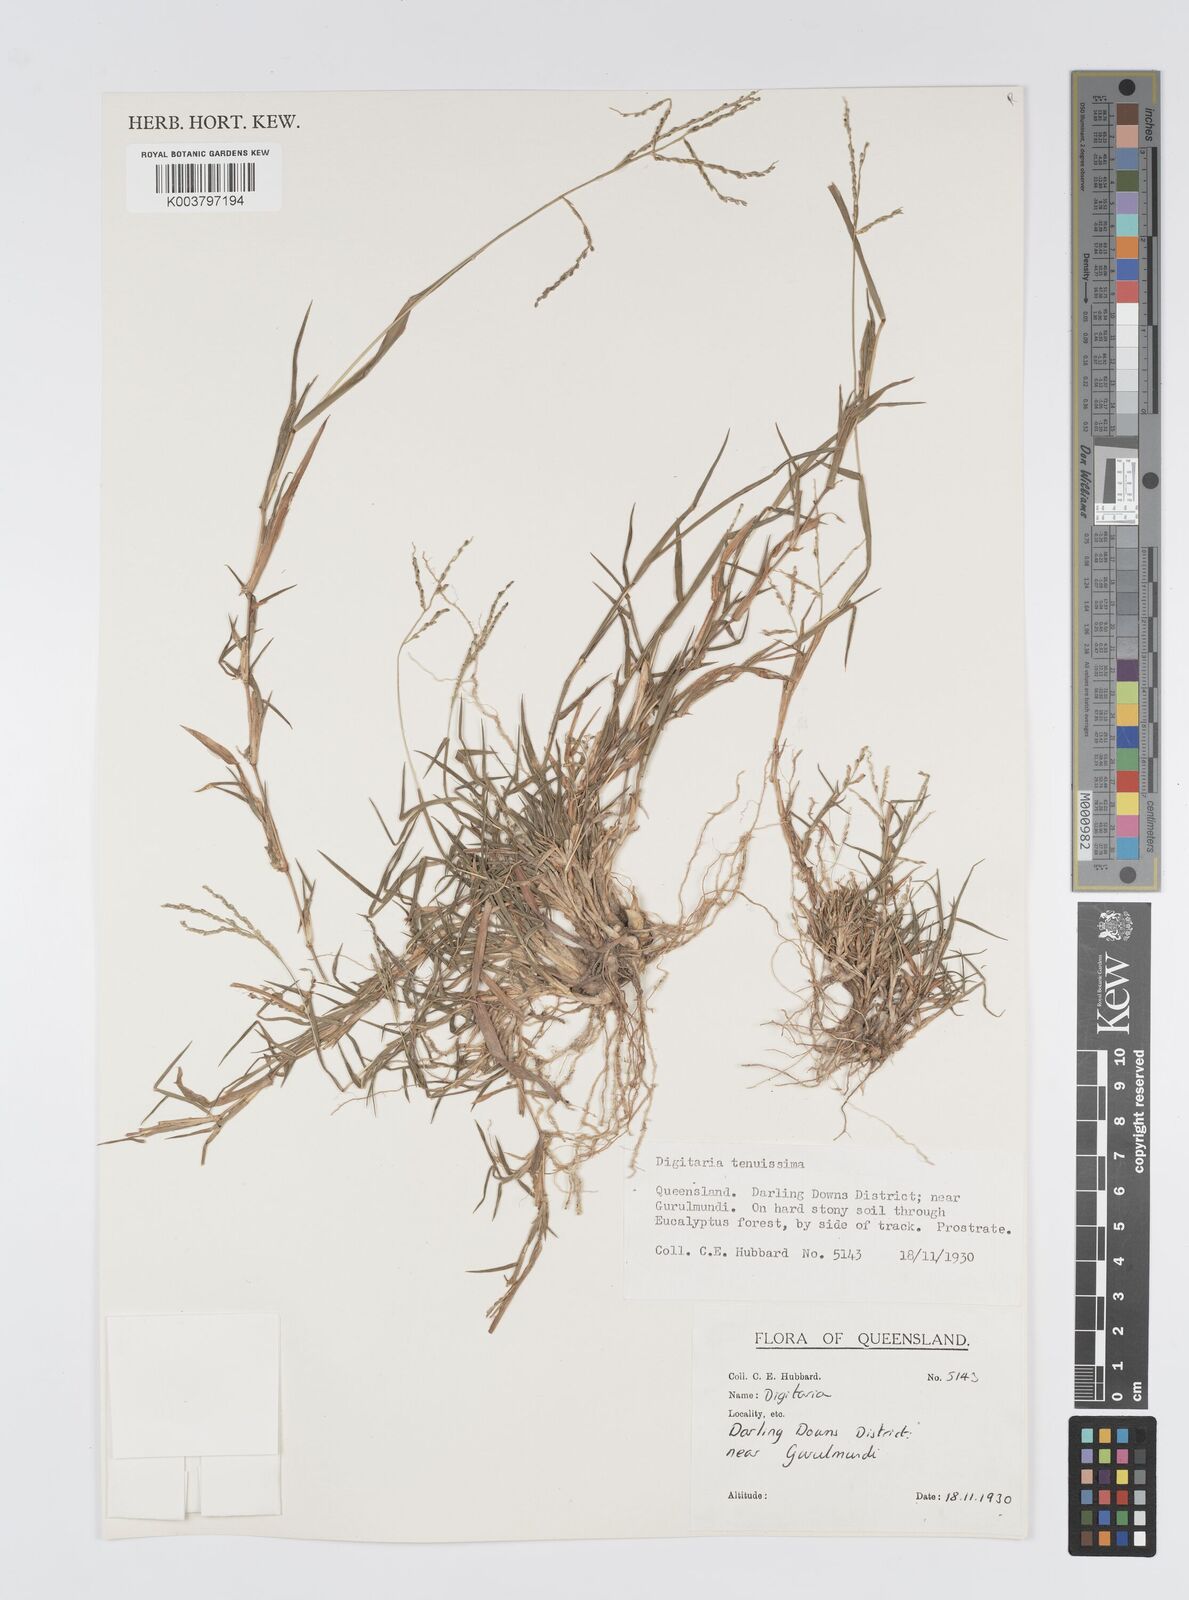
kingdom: Plantae
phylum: Tracheophyta
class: Liliopsida
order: Poales
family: Poaceae
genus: Digitaria
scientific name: Digitaria spec
